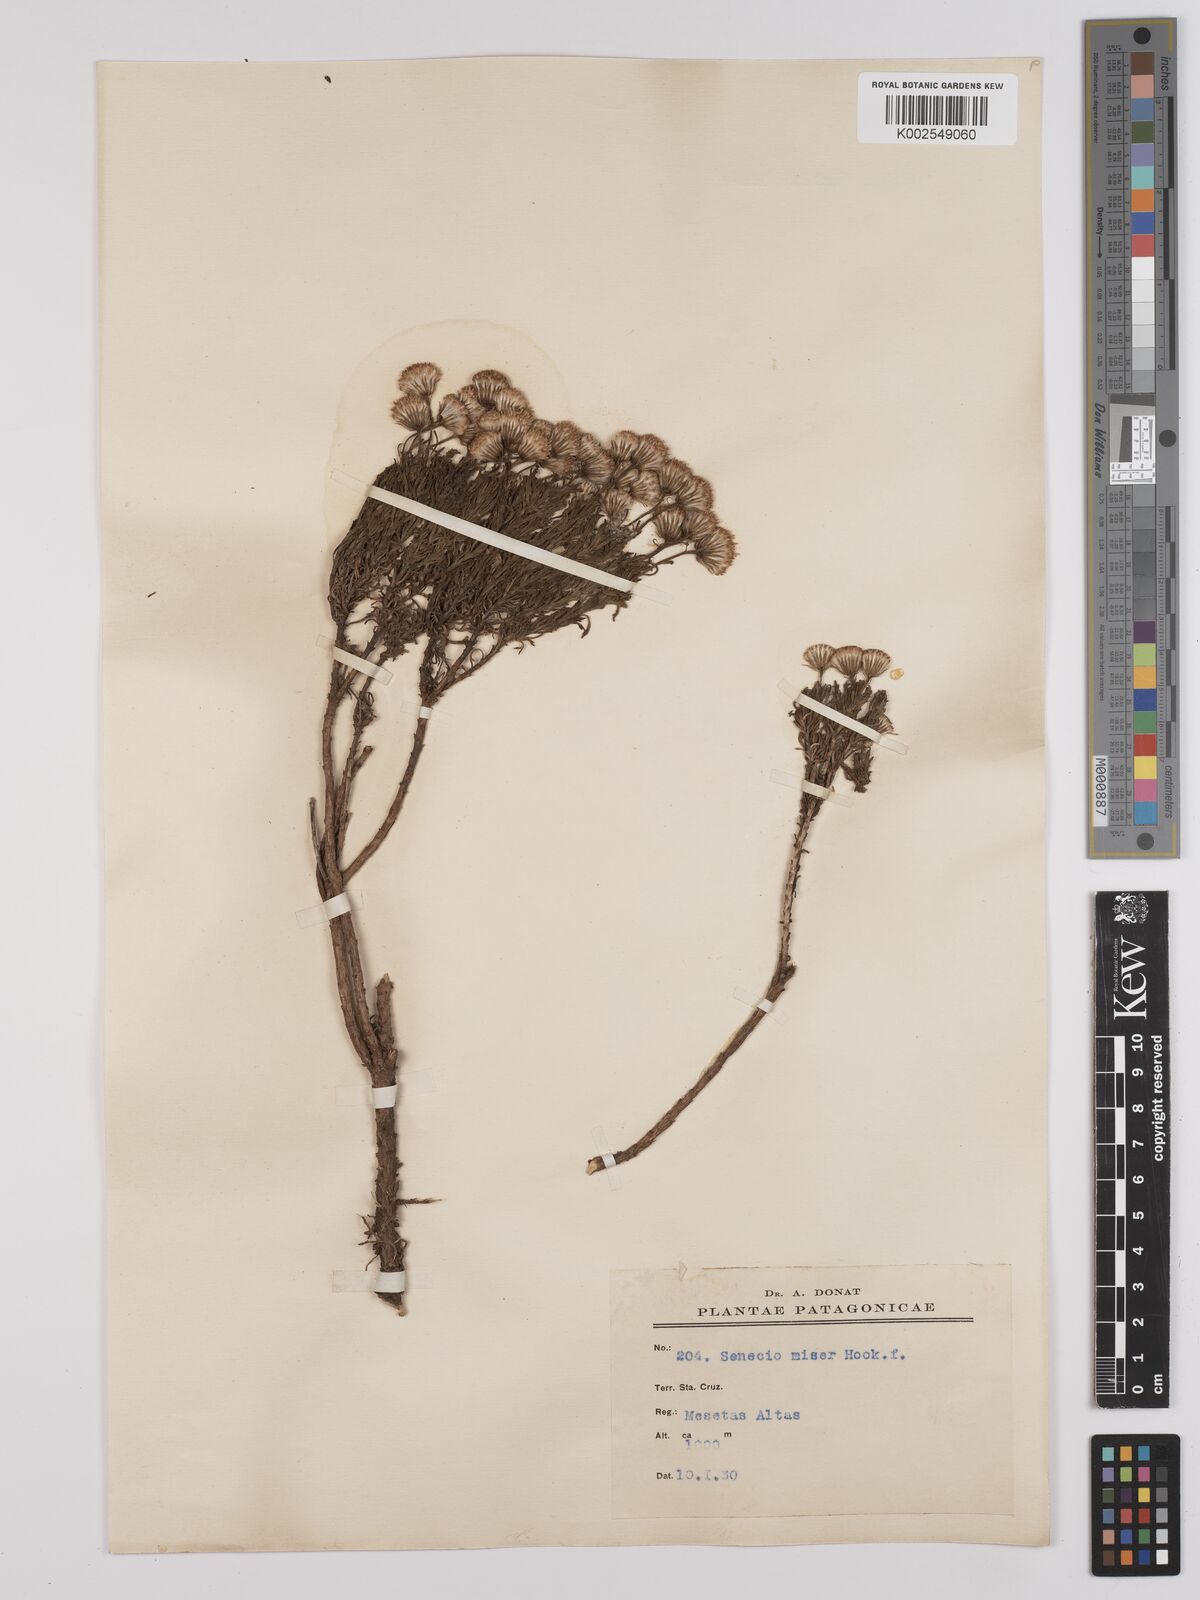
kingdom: Plantae
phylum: Tracheophyta
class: Magnoliopsida
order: Asterales
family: Asteraceae
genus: Senecio
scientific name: Senecio miser
